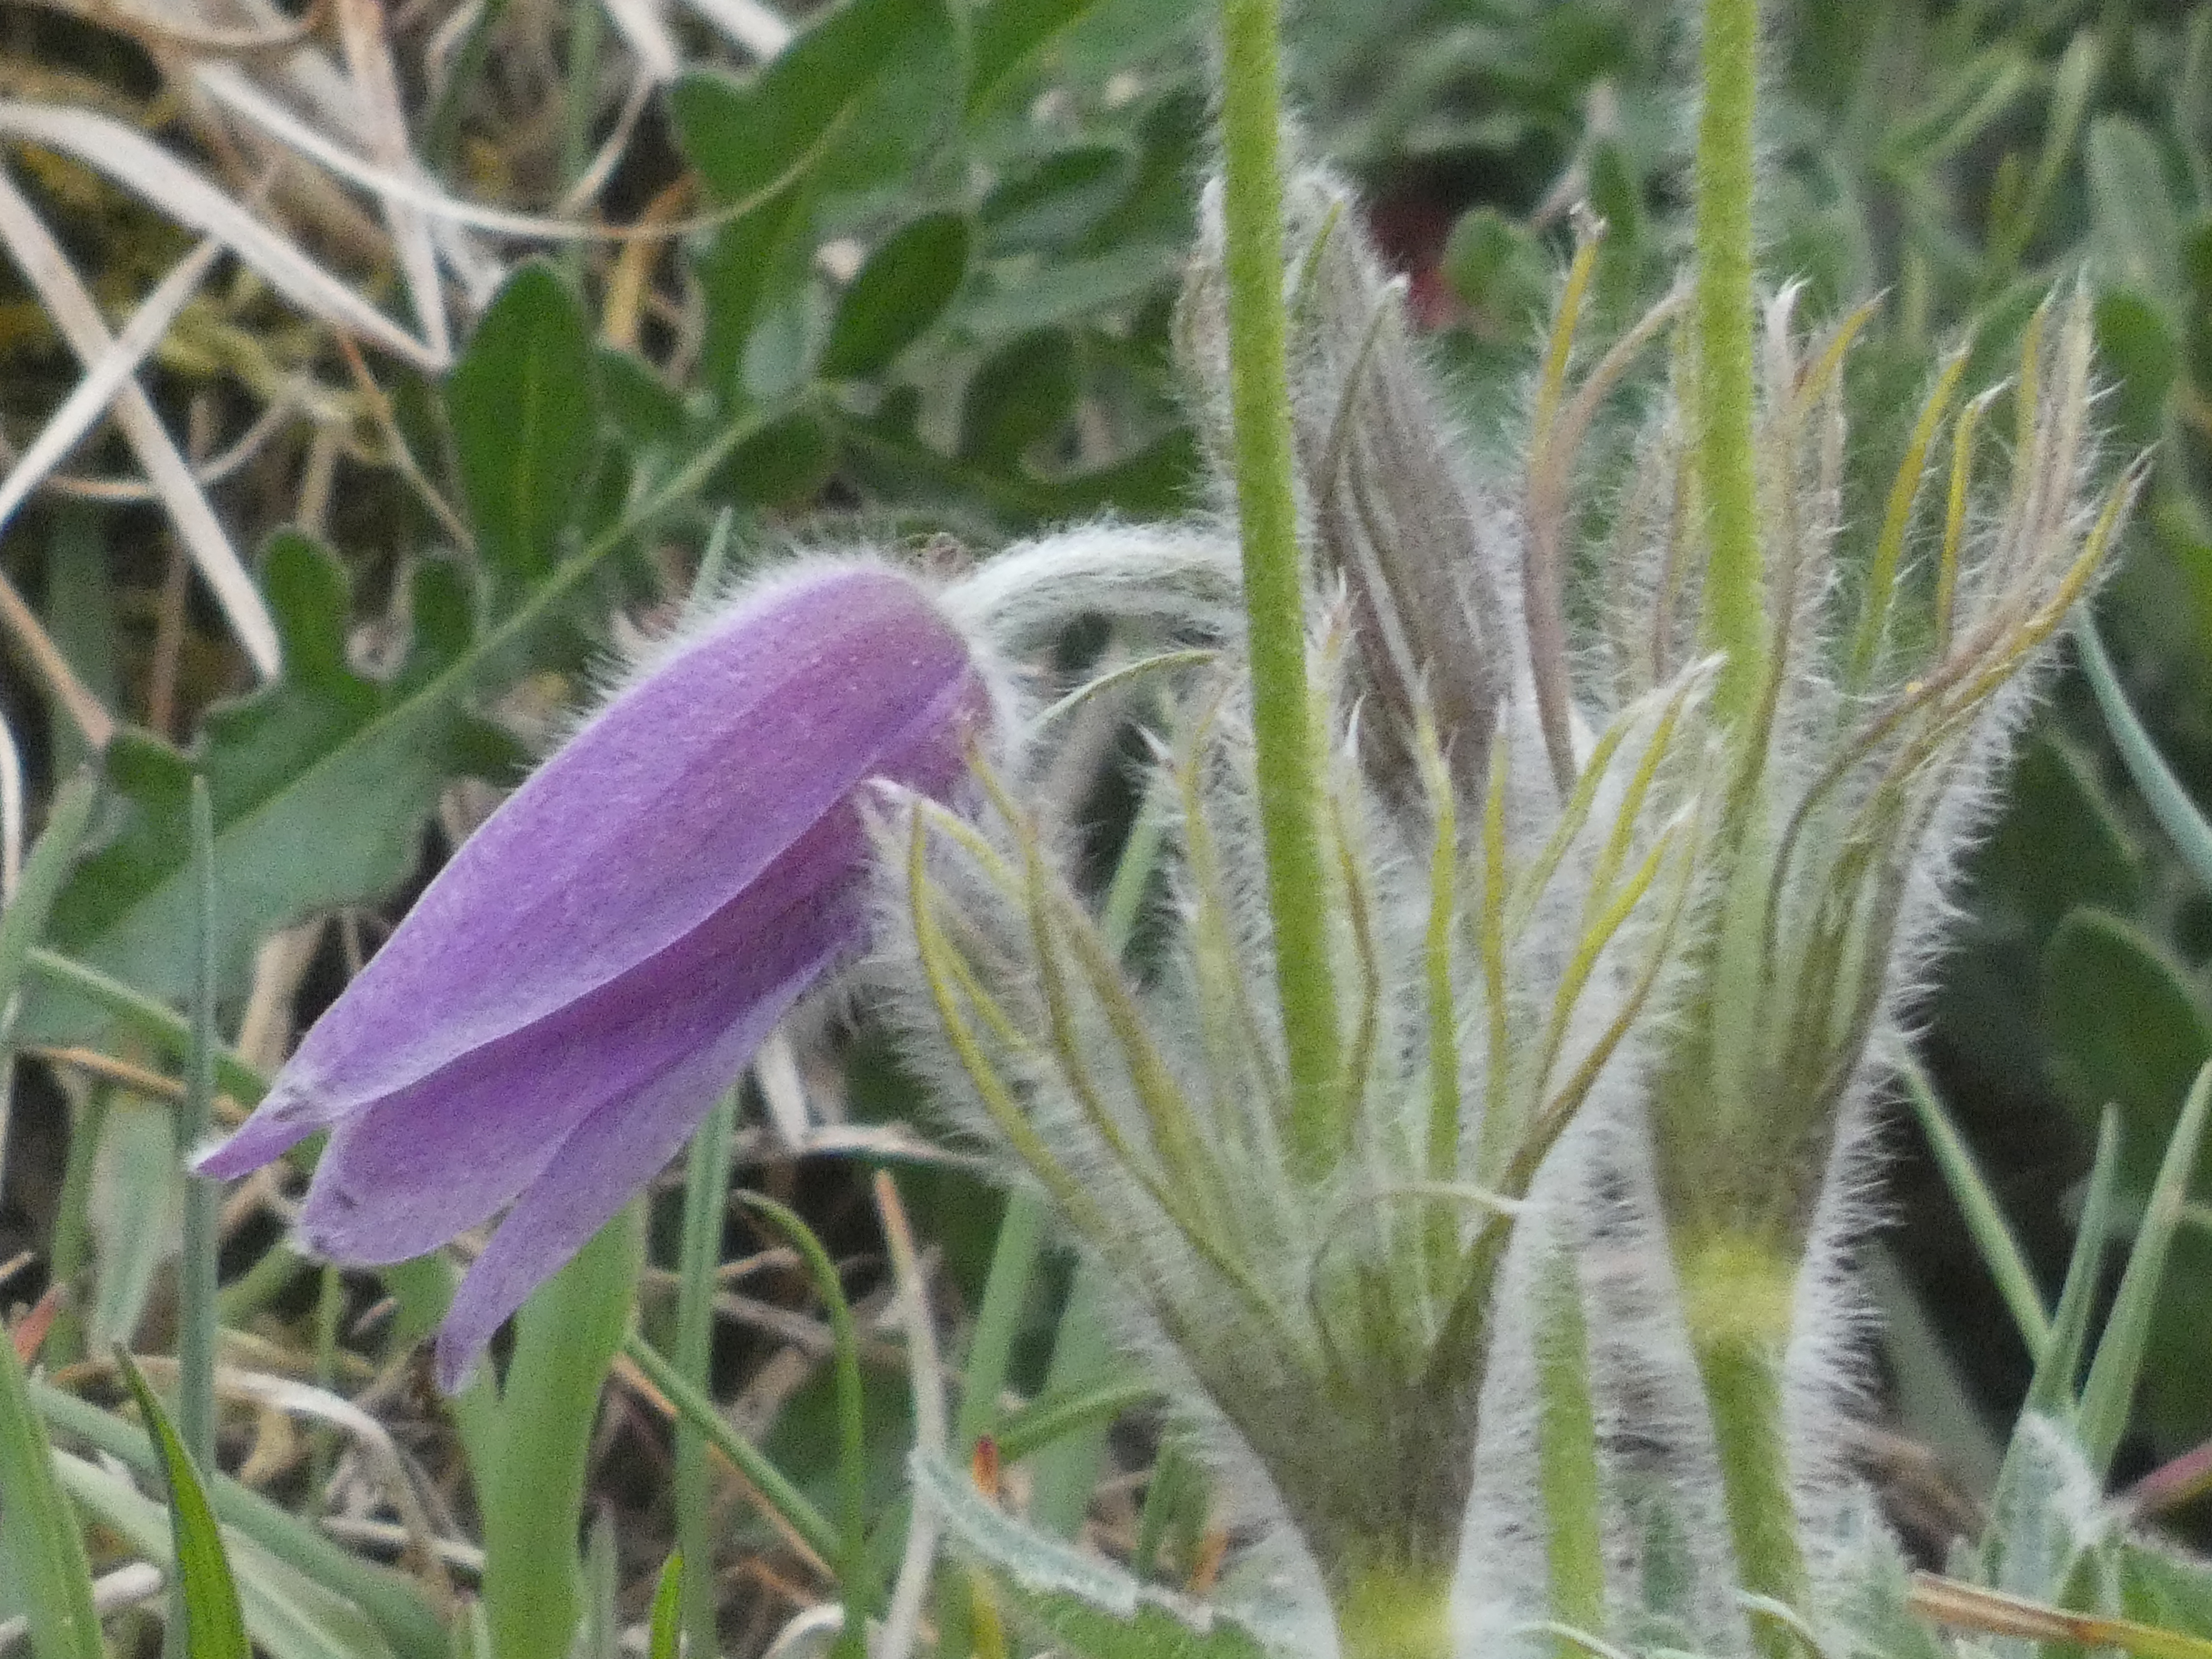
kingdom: Plantae
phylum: Tracheophyta
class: Magnoliopsida
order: Ranunculales
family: Ranunculaceae
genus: Pulsatilla
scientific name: Pulsatilla vulgaris
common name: Opret kobjælde
